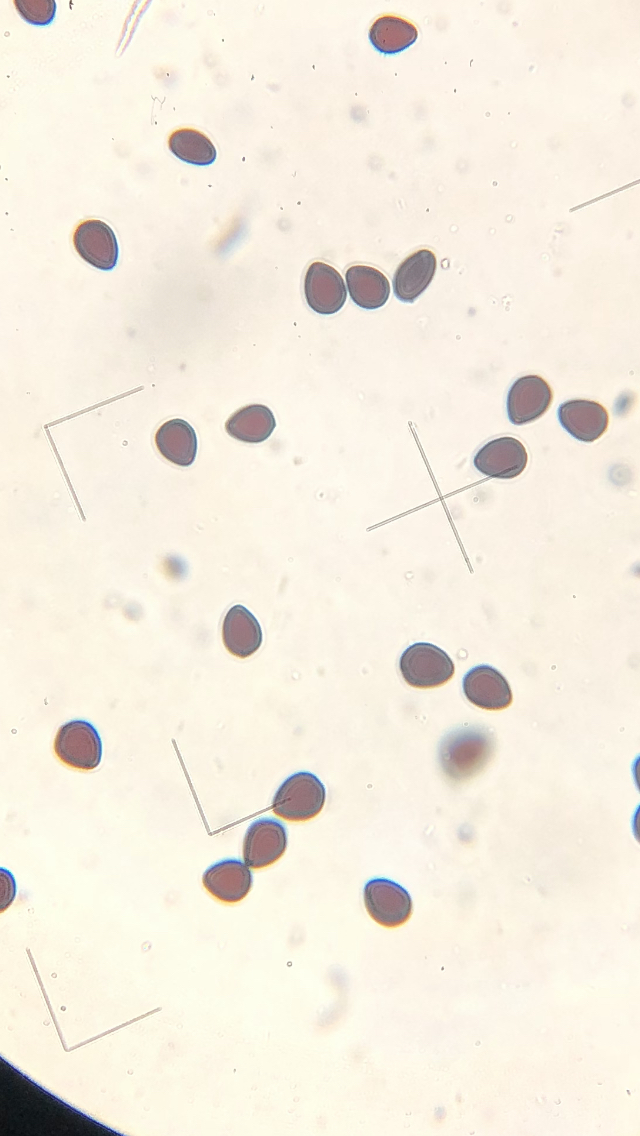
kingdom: Fungi
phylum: Basidiomycota
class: Agaricomycetes
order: Agaricales
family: Psathyrellaceae
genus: Parasola
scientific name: Parasola plicatilis
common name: plæne-hjulhat
